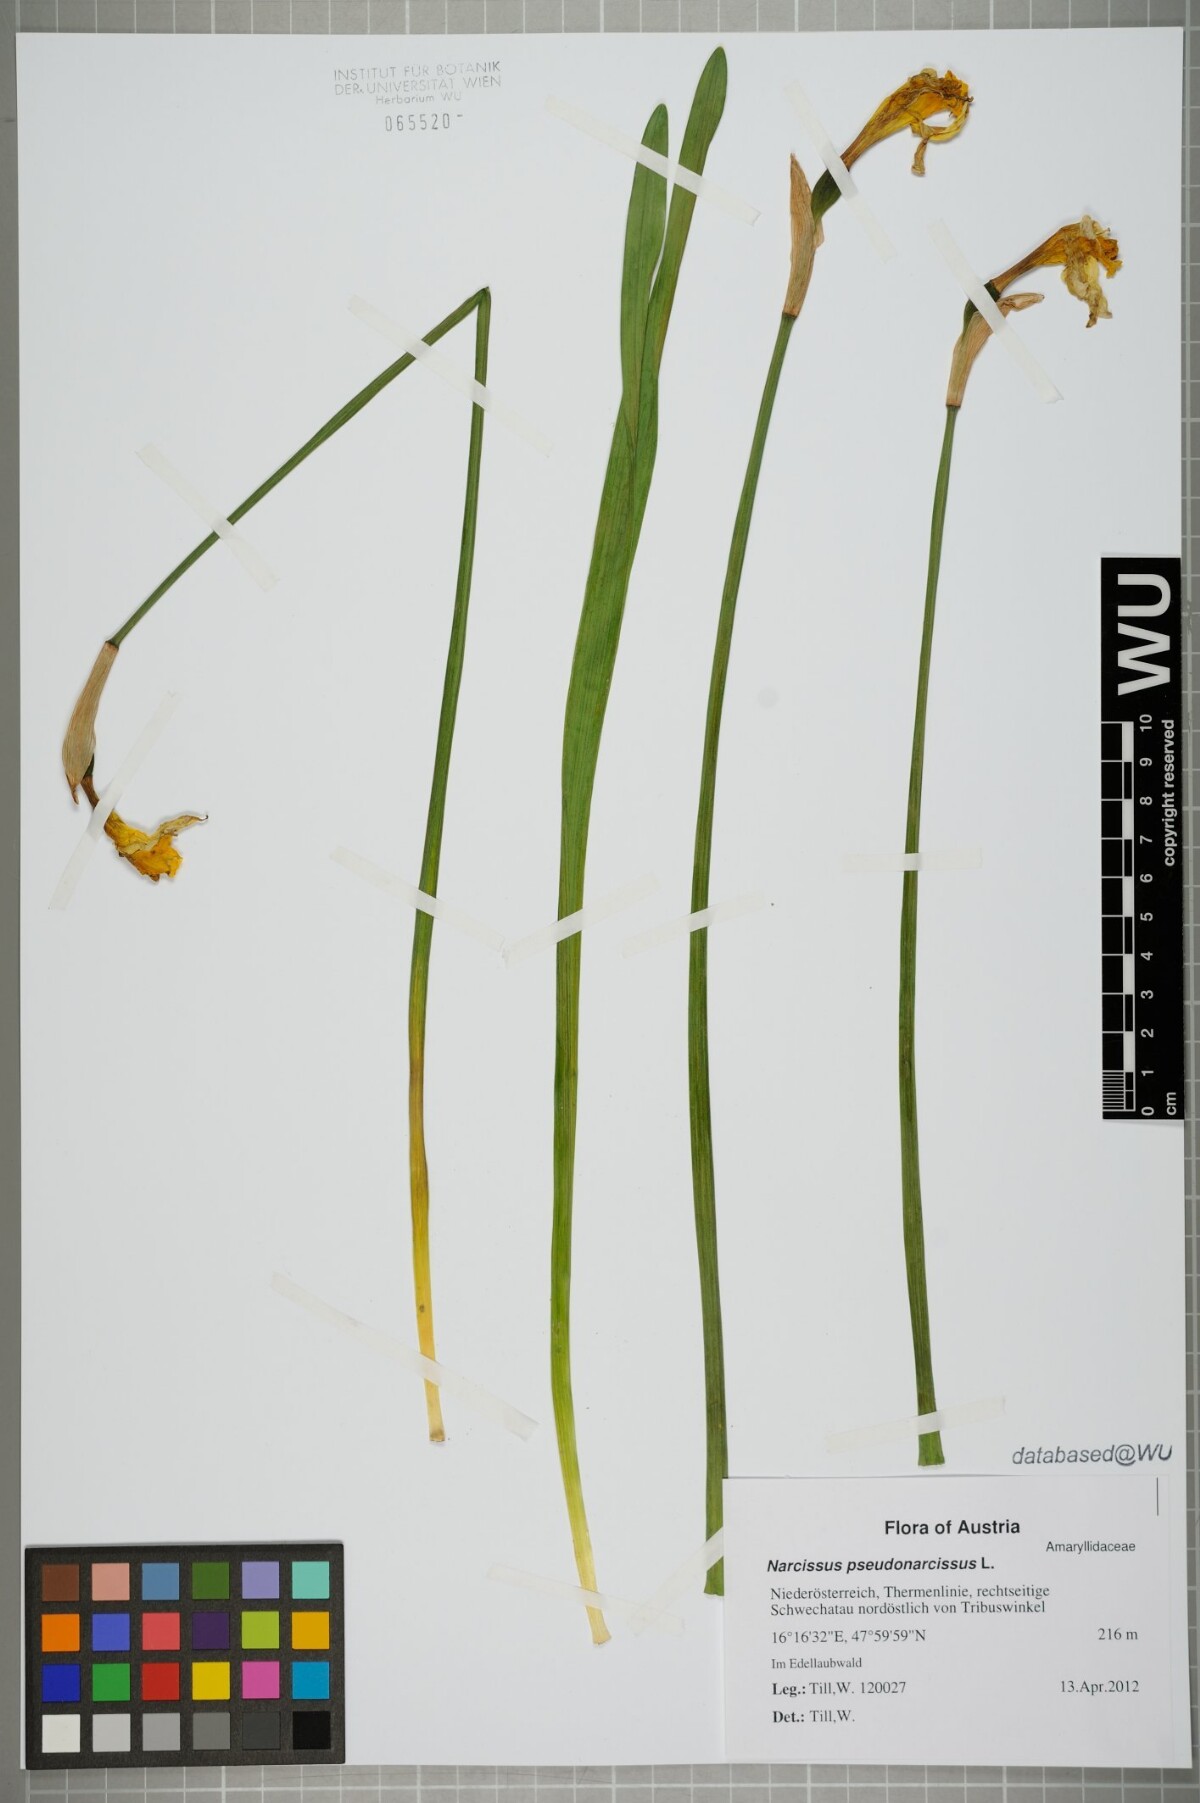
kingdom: Plantae
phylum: Tracheophyta
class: Liliopsida
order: Asparagales
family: Amaryllidaceae
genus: Narcissus
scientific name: Narcissus pseudonarcissus
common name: Daffodil
